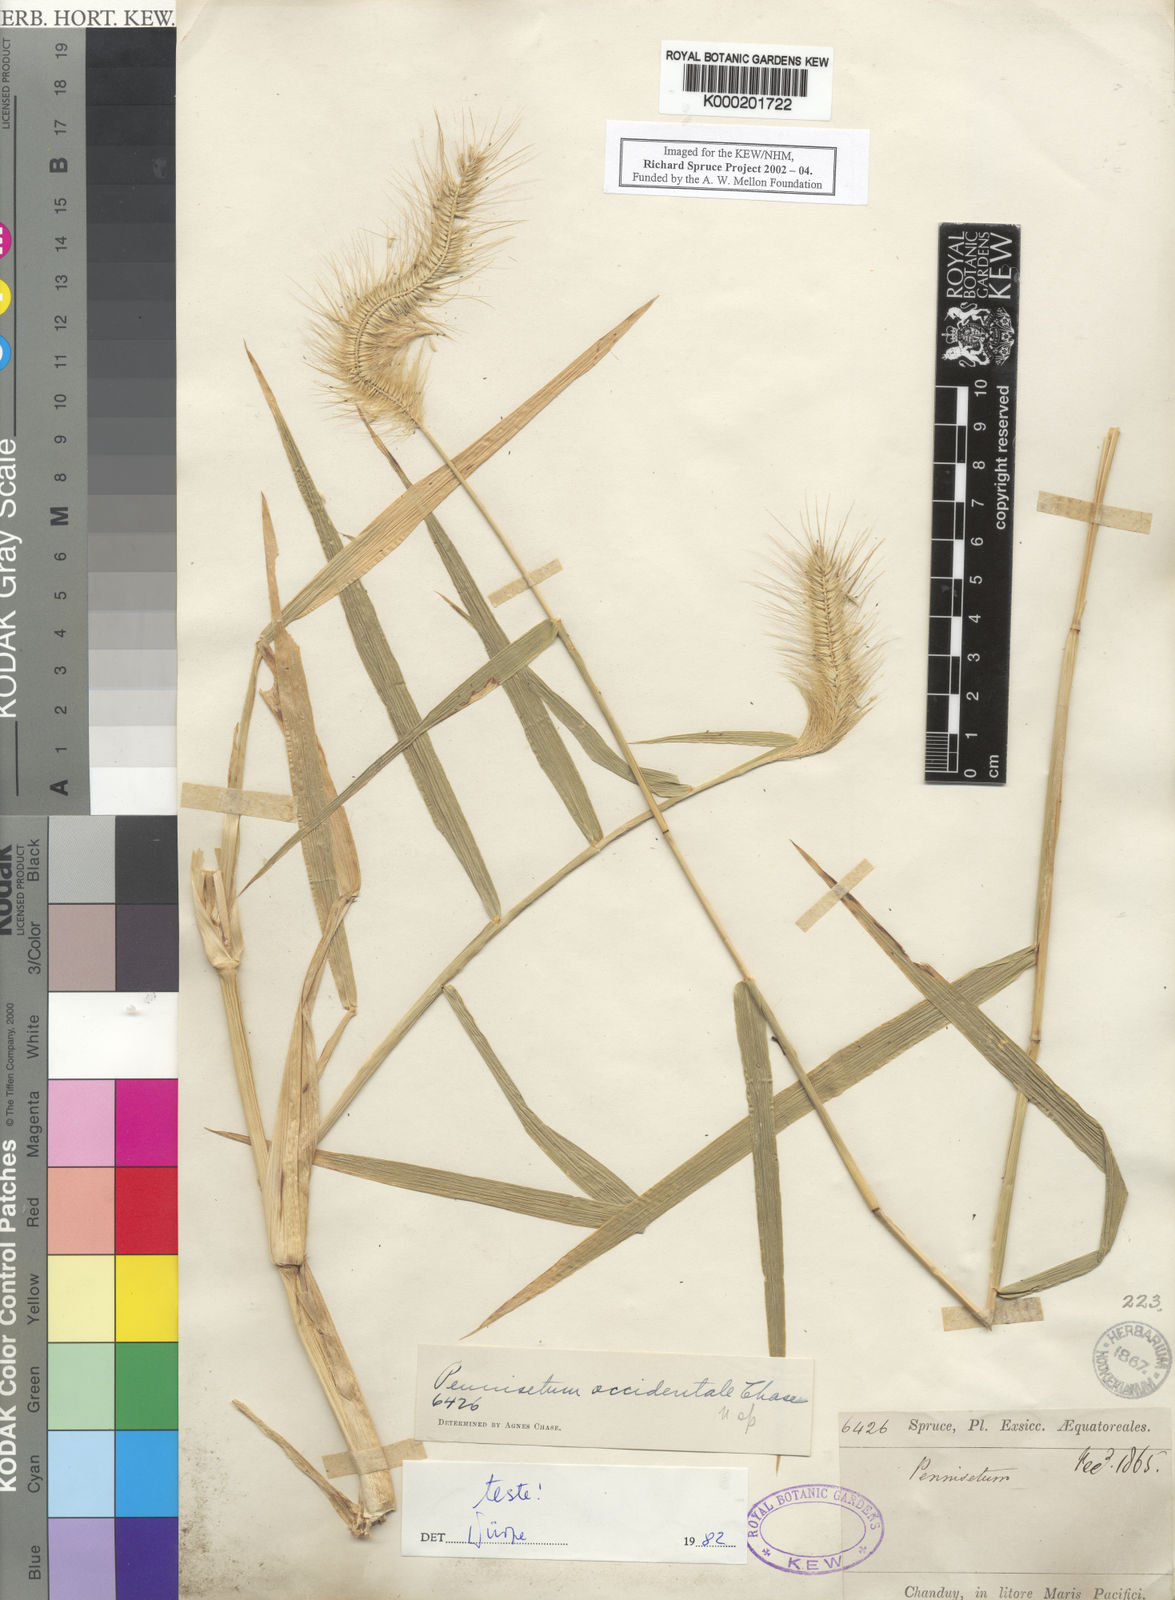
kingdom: Plantae
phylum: Tracheophyta
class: Liliopsida
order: Poales
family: Poaceae
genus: Cenchrus
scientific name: Cenchrus occidentalis
